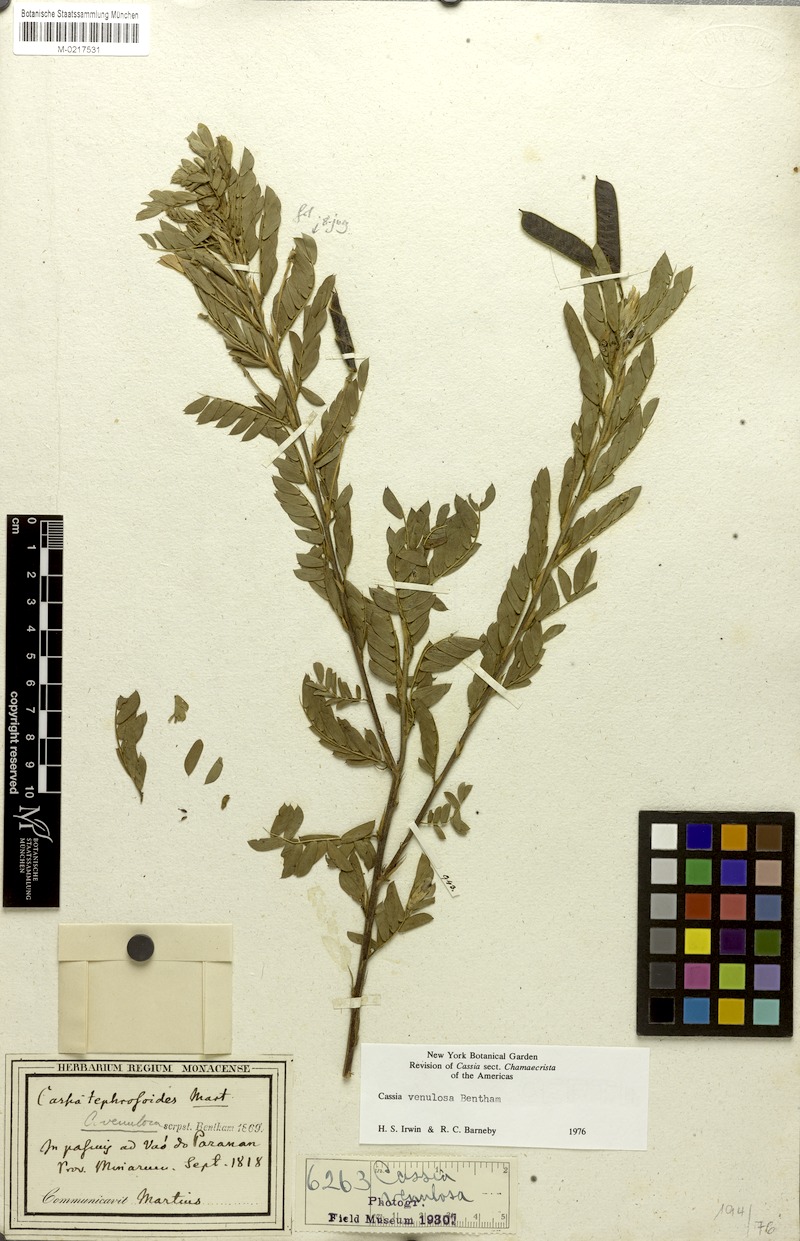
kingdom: Plantae
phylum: Tracheophyta
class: Magnoliopsida
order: Fabales
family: Fabaceae
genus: Chamaecrista
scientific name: Chamaecrista venulosa
